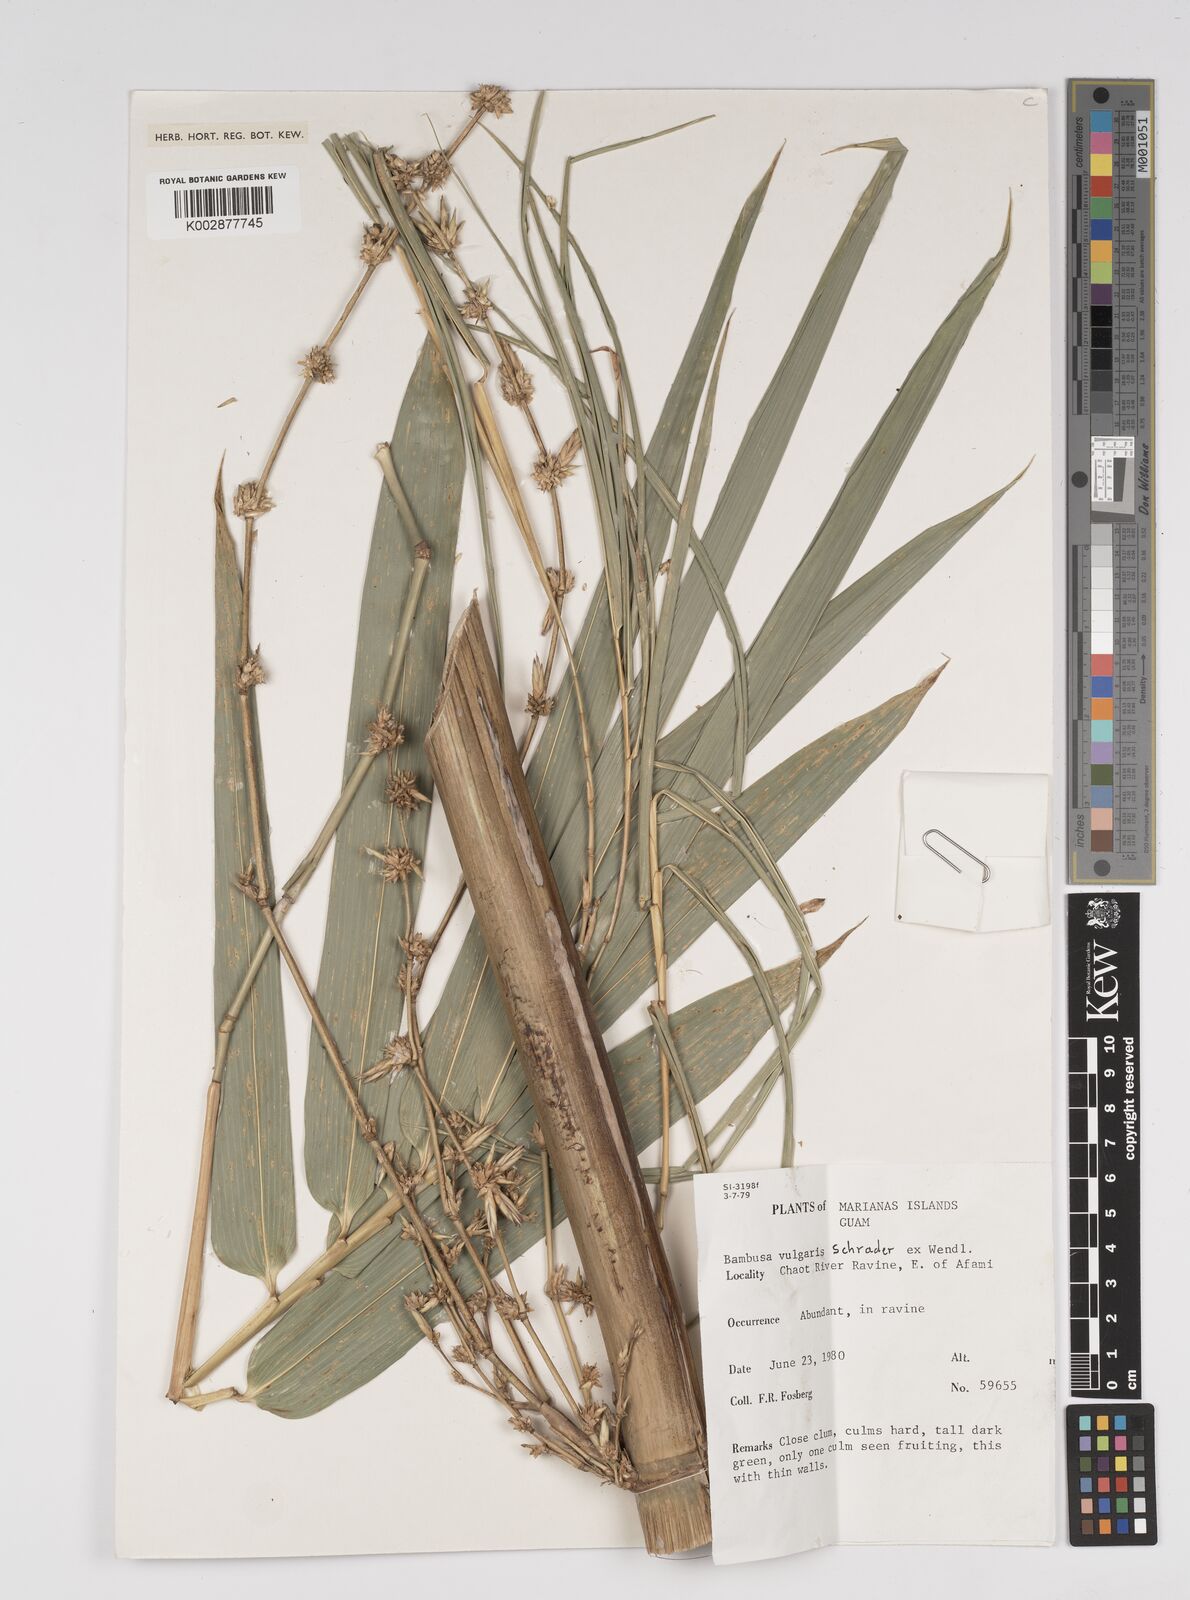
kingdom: Plantae
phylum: Tracheophyta
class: Liliopsida
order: Poales
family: Poaceae
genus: Bambusa
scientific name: Bambusa vulgaris
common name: Common bamboo
